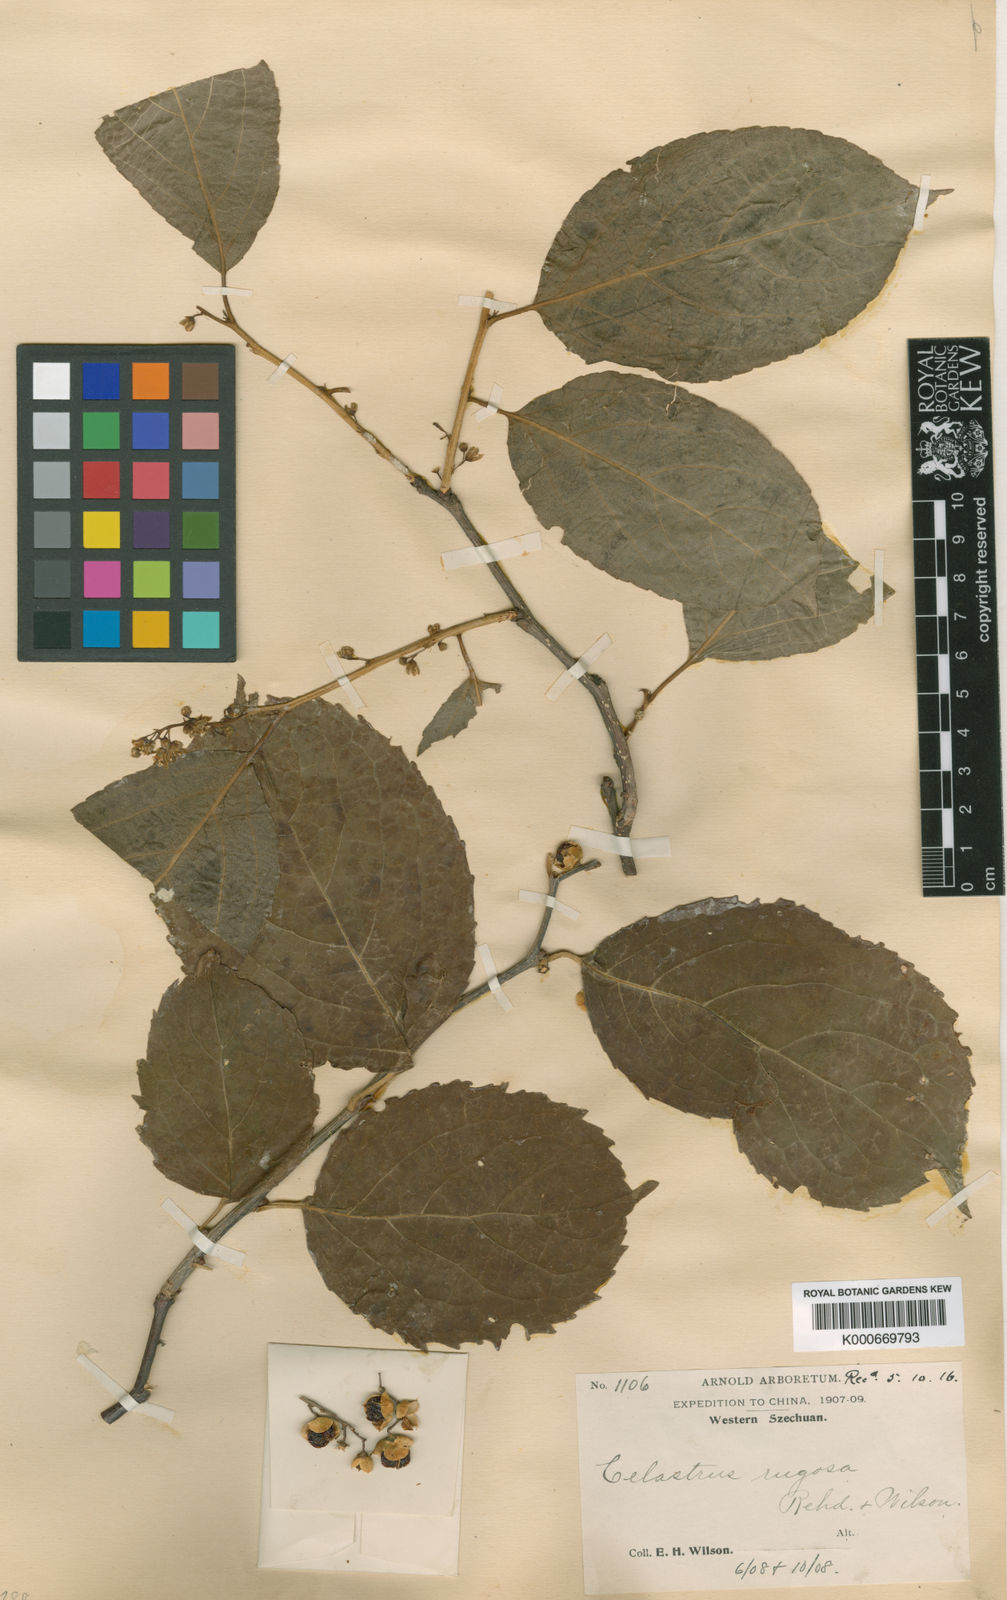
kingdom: Plantae
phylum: Tracheophyta
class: Magnoliopsida
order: Celastrales
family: Celastraceae
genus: Celastrus
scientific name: Celastrus hookeri
